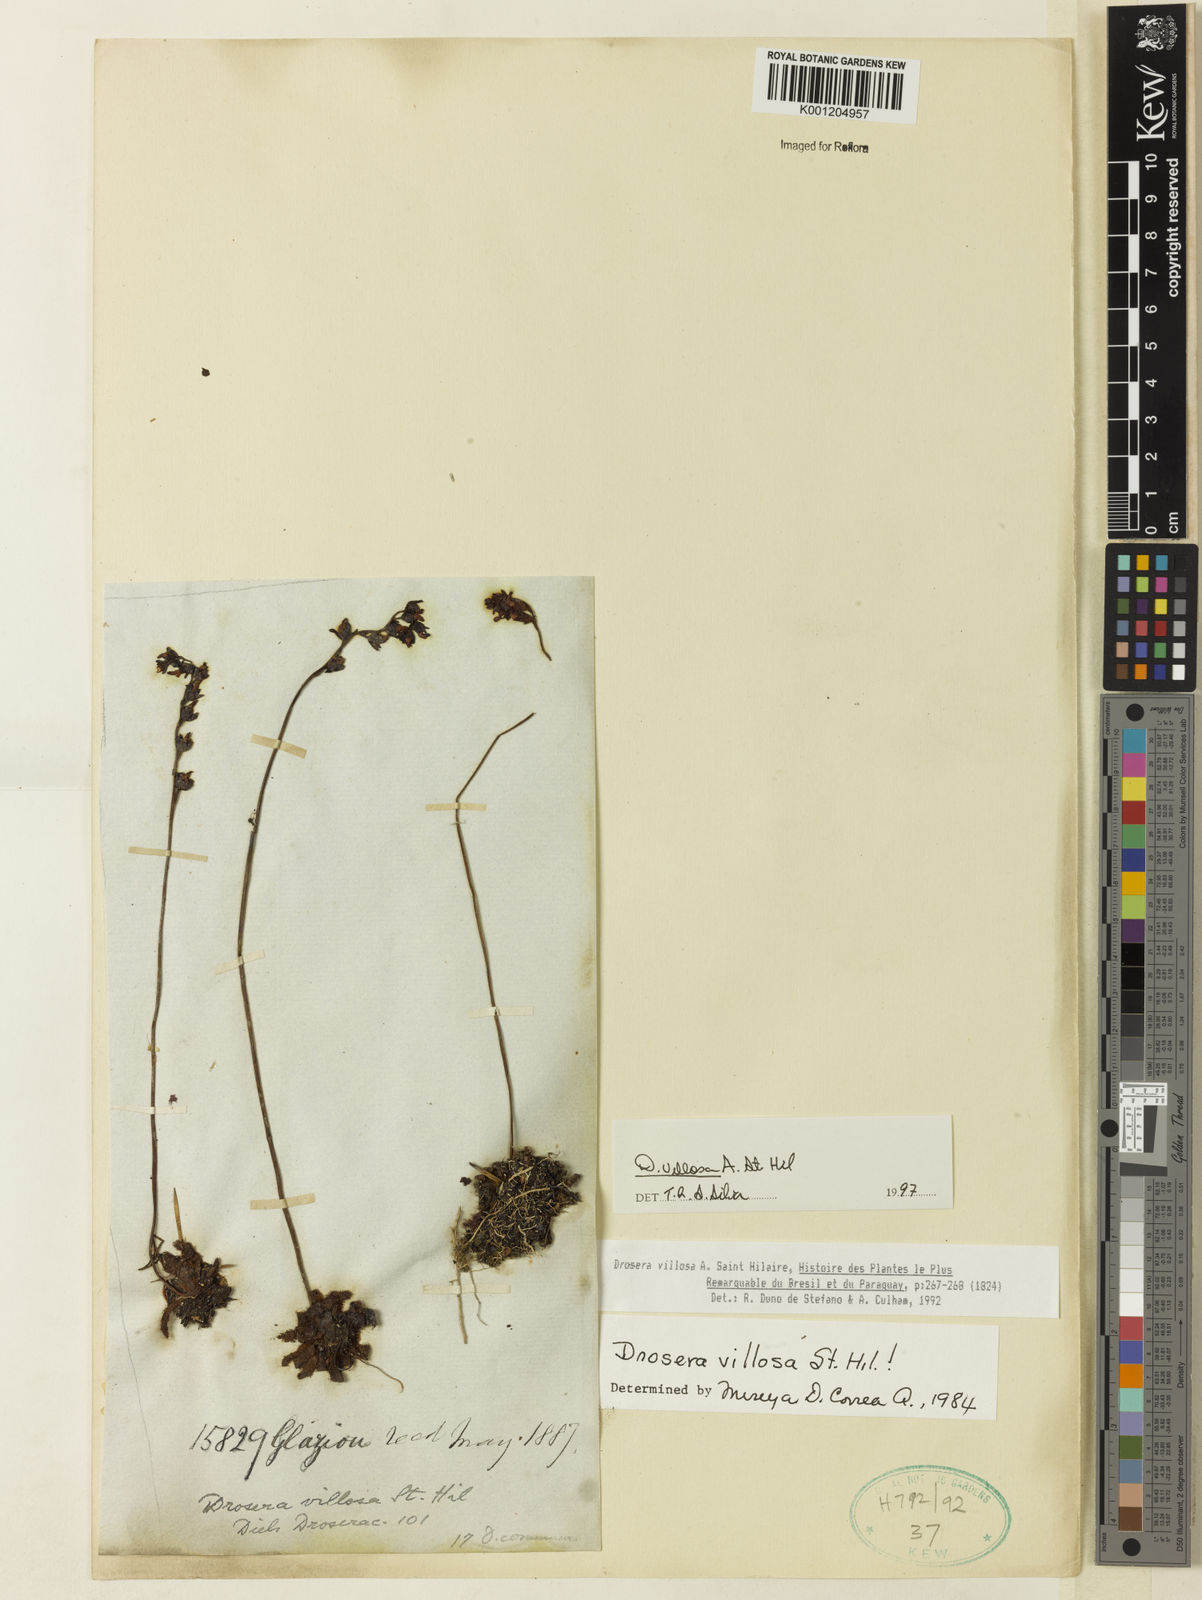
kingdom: Plantae
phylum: Tracheophyta
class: Magnoliopsida
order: Caryophyllales
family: Droseraceae
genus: Drosera
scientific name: Drosera villosa
